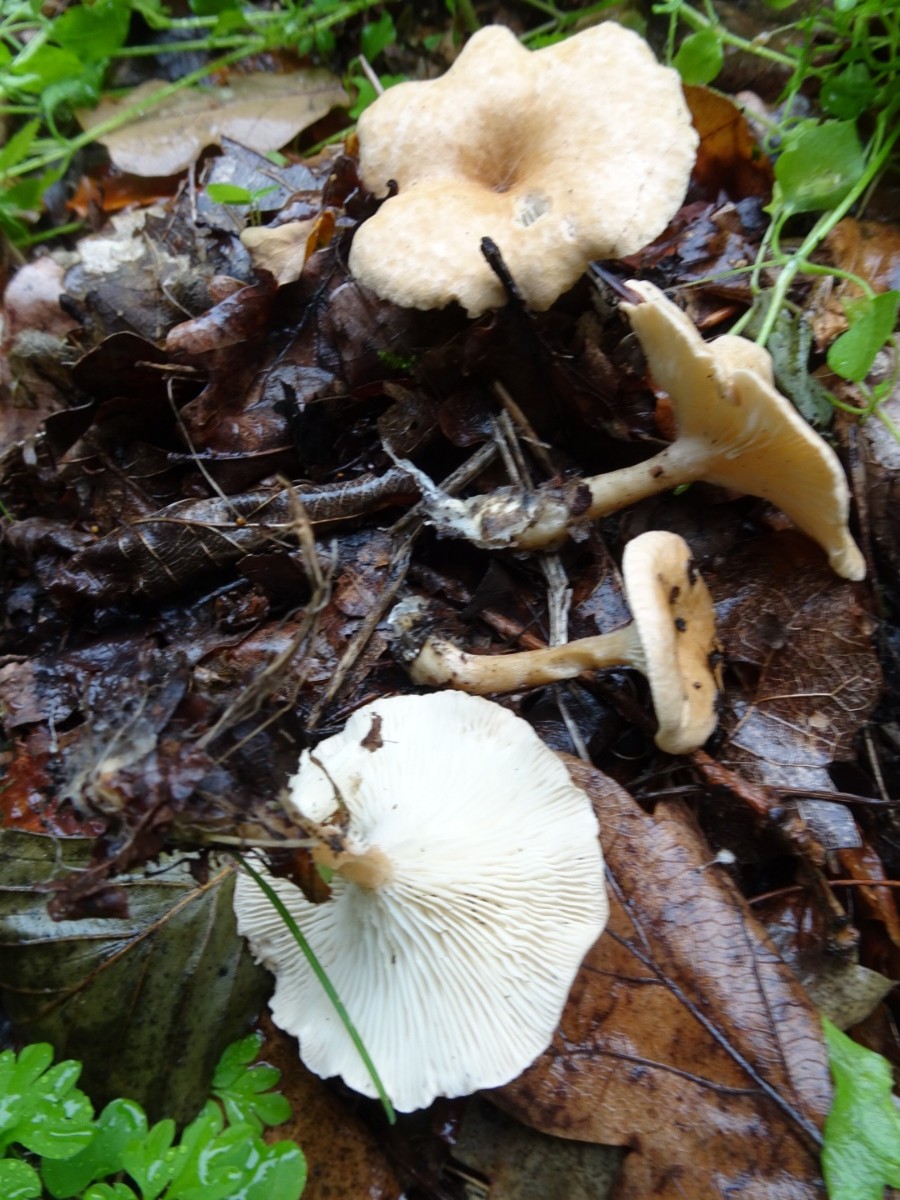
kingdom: Fungi
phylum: Basidiomycota
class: Agaricomycetes
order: Agaricales
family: Tricholomataceae
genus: Infundibulicybe
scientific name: Infundibulicybe gibba
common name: almindelig tragthat
